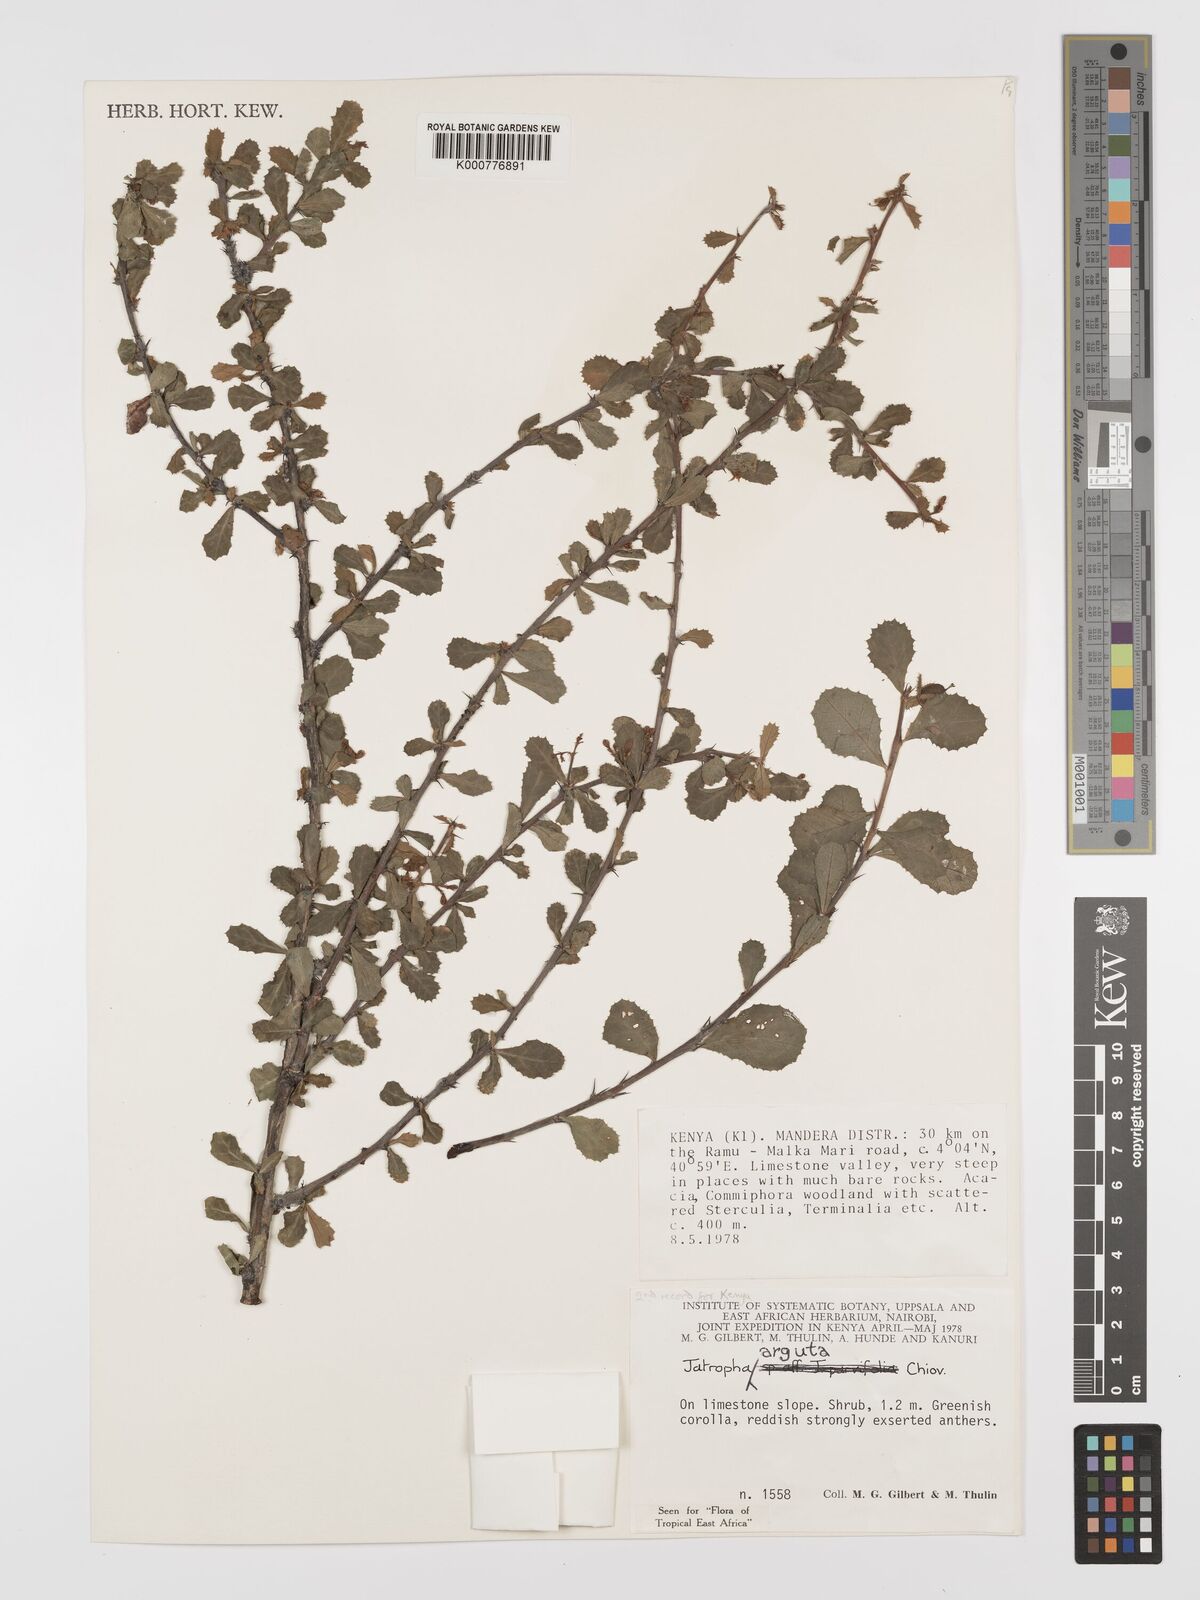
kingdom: Plantae
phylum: Tracheophyta
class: Magnoliopsida
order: Malpighiales
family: Euphorbiaceae
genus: Jatropha
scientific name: Jatropha rivae
